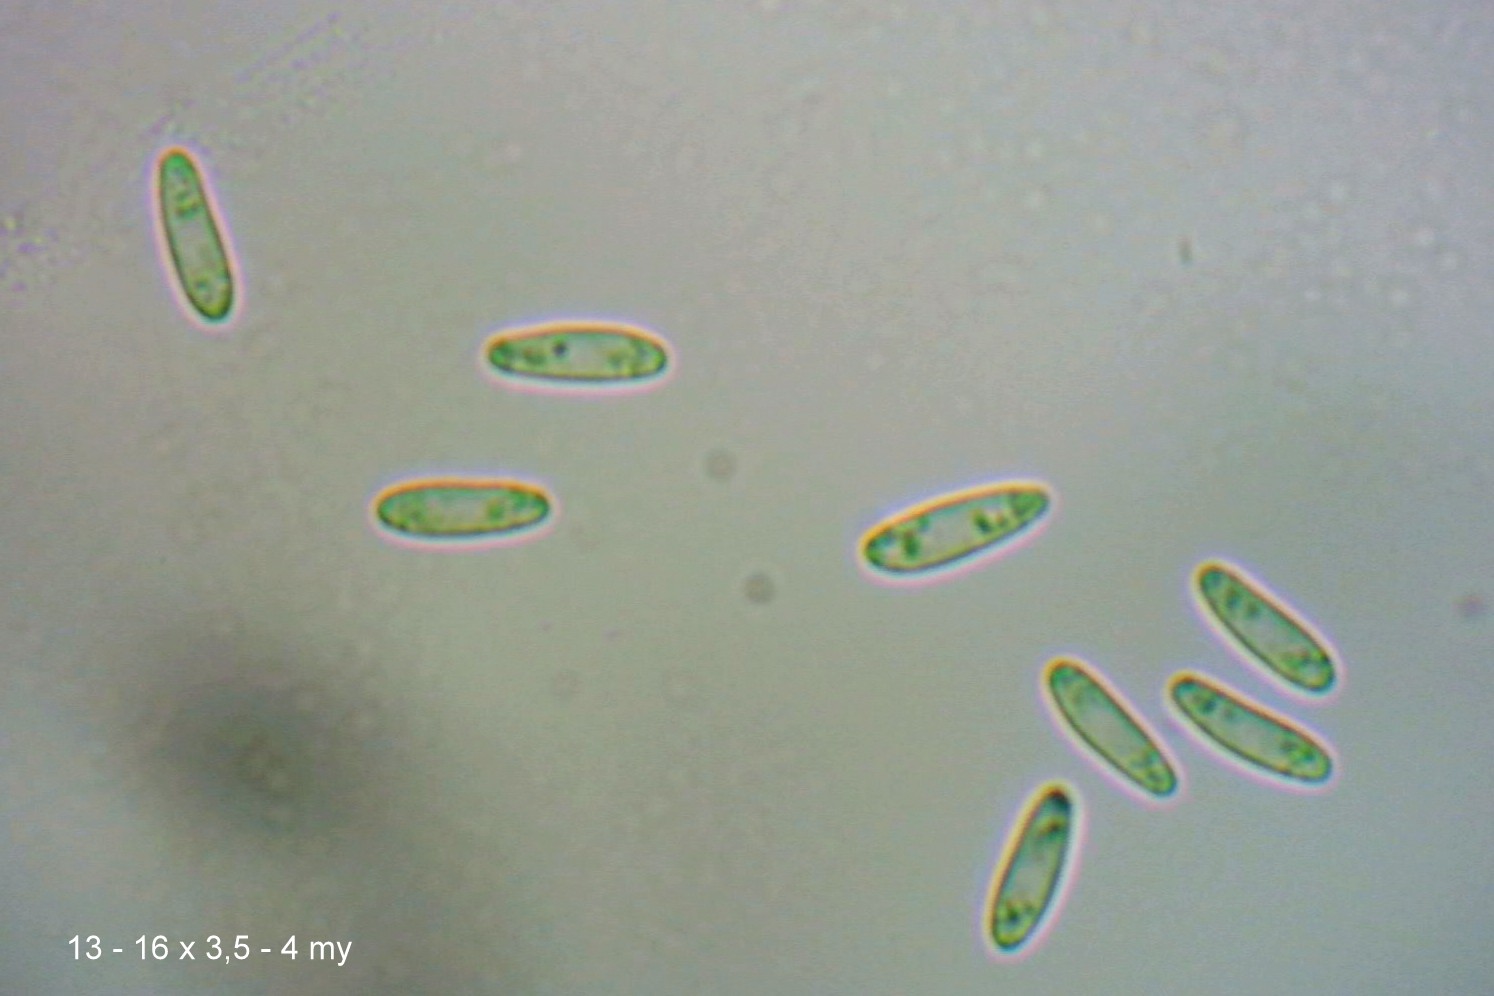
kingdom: Fungi
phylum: Ascomycota
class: Leotiomycetes
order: Helotiales
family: Hyaloscyphaceae
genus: Roseodiscus
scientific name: Roseodiscus formosus
